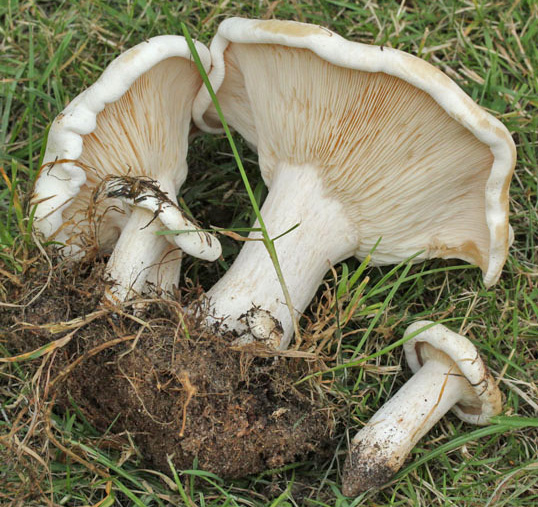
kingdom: Fungi
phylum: Basidiomycota
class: Agaricomycetes
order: Agaricales
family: Tricholomataceae
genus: Aspropaxillus
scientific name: Aspropaxillus giganteus
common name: kæmpe-tragtridderhat
